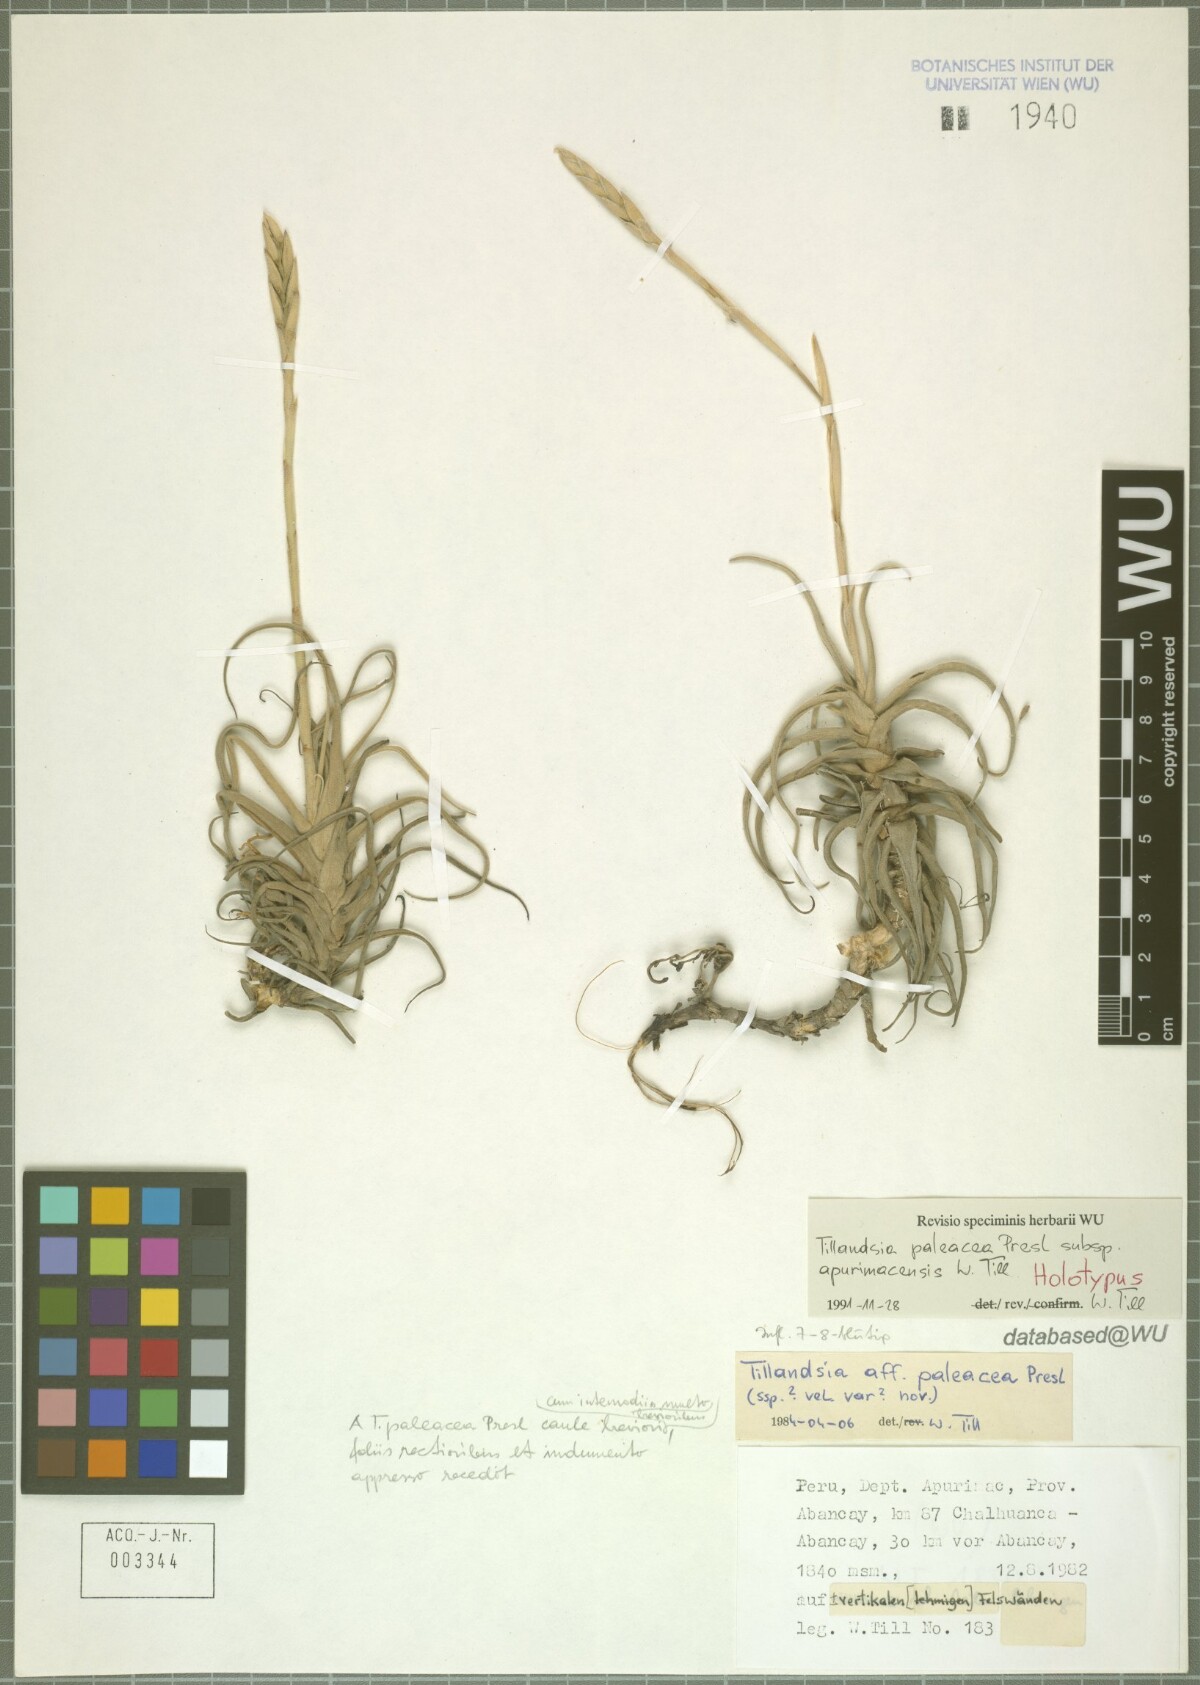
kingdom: Plantae
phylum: Tracheophyta
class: Liliopsida
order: Poales
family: Bromeliaceae
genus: Tillandsia
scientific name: Tillandsia paleacea
